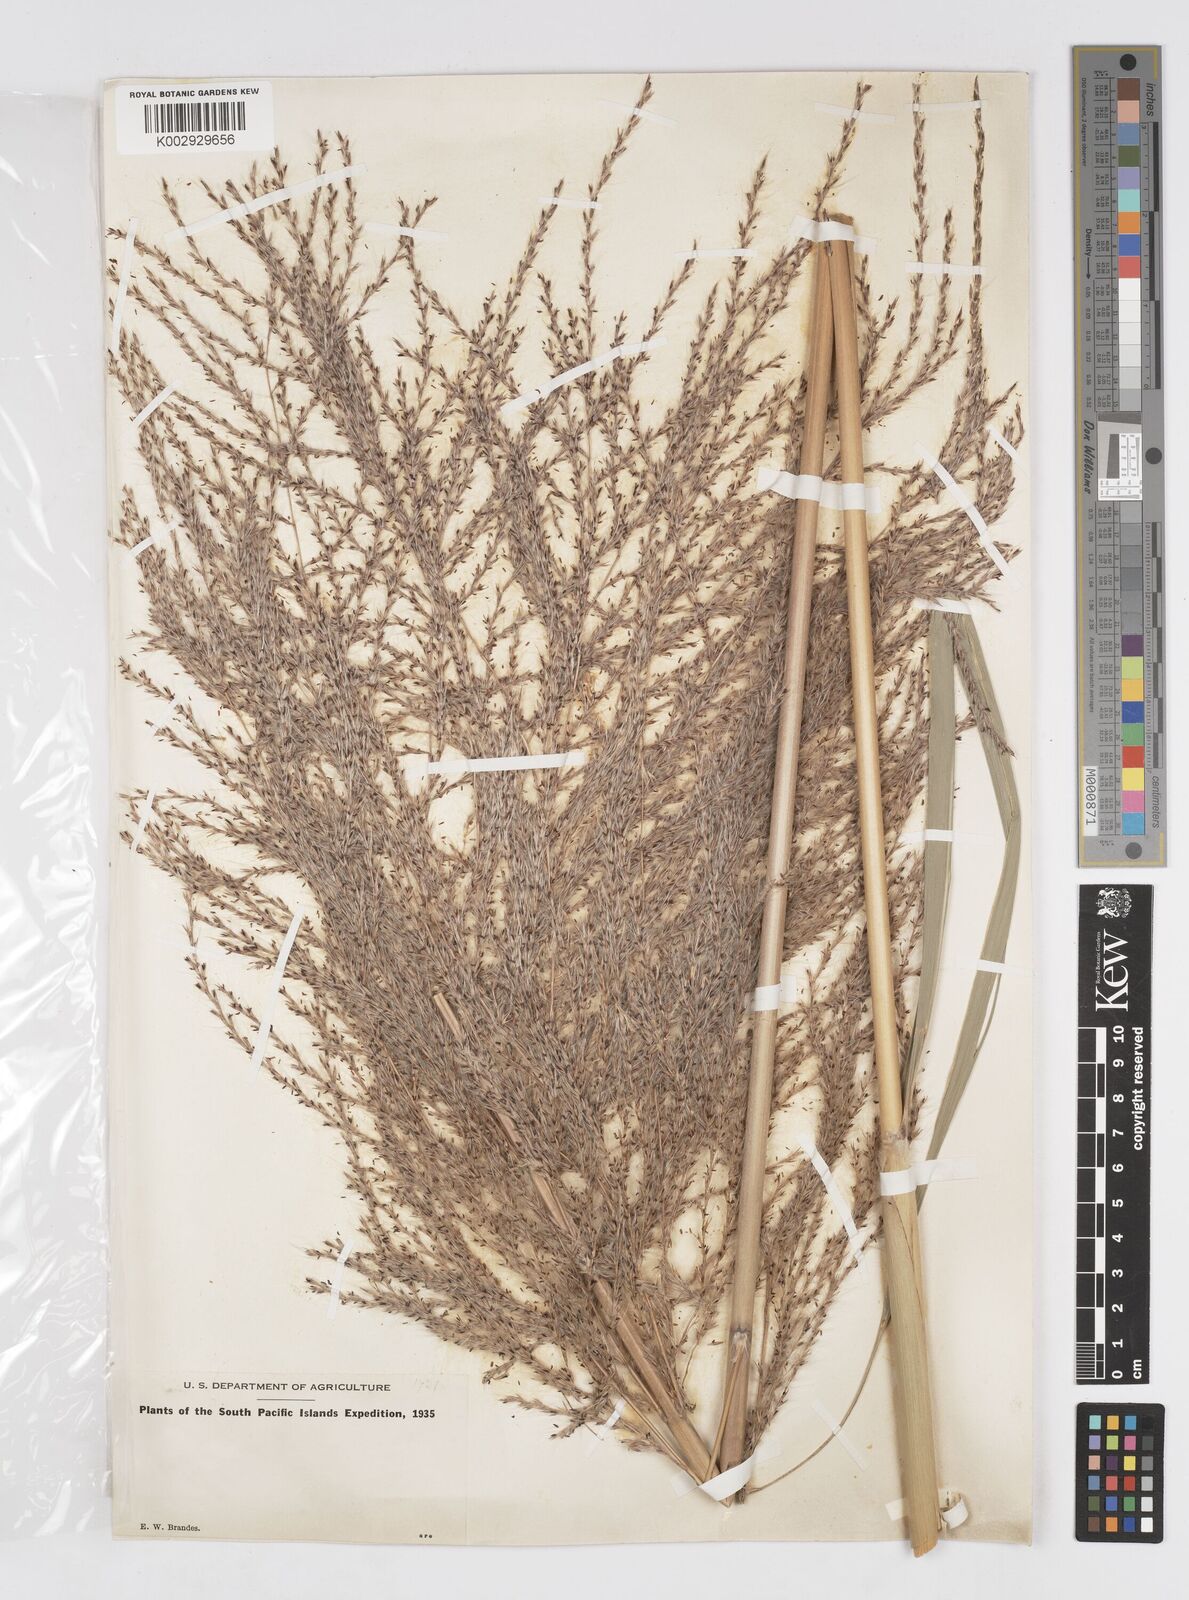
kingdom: Plantae
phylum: Tracheophyta
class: Liliopsida
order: Poales
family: Poaceae
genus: Saccharum
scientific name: Saccharum officinarum
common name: Sugarcane
